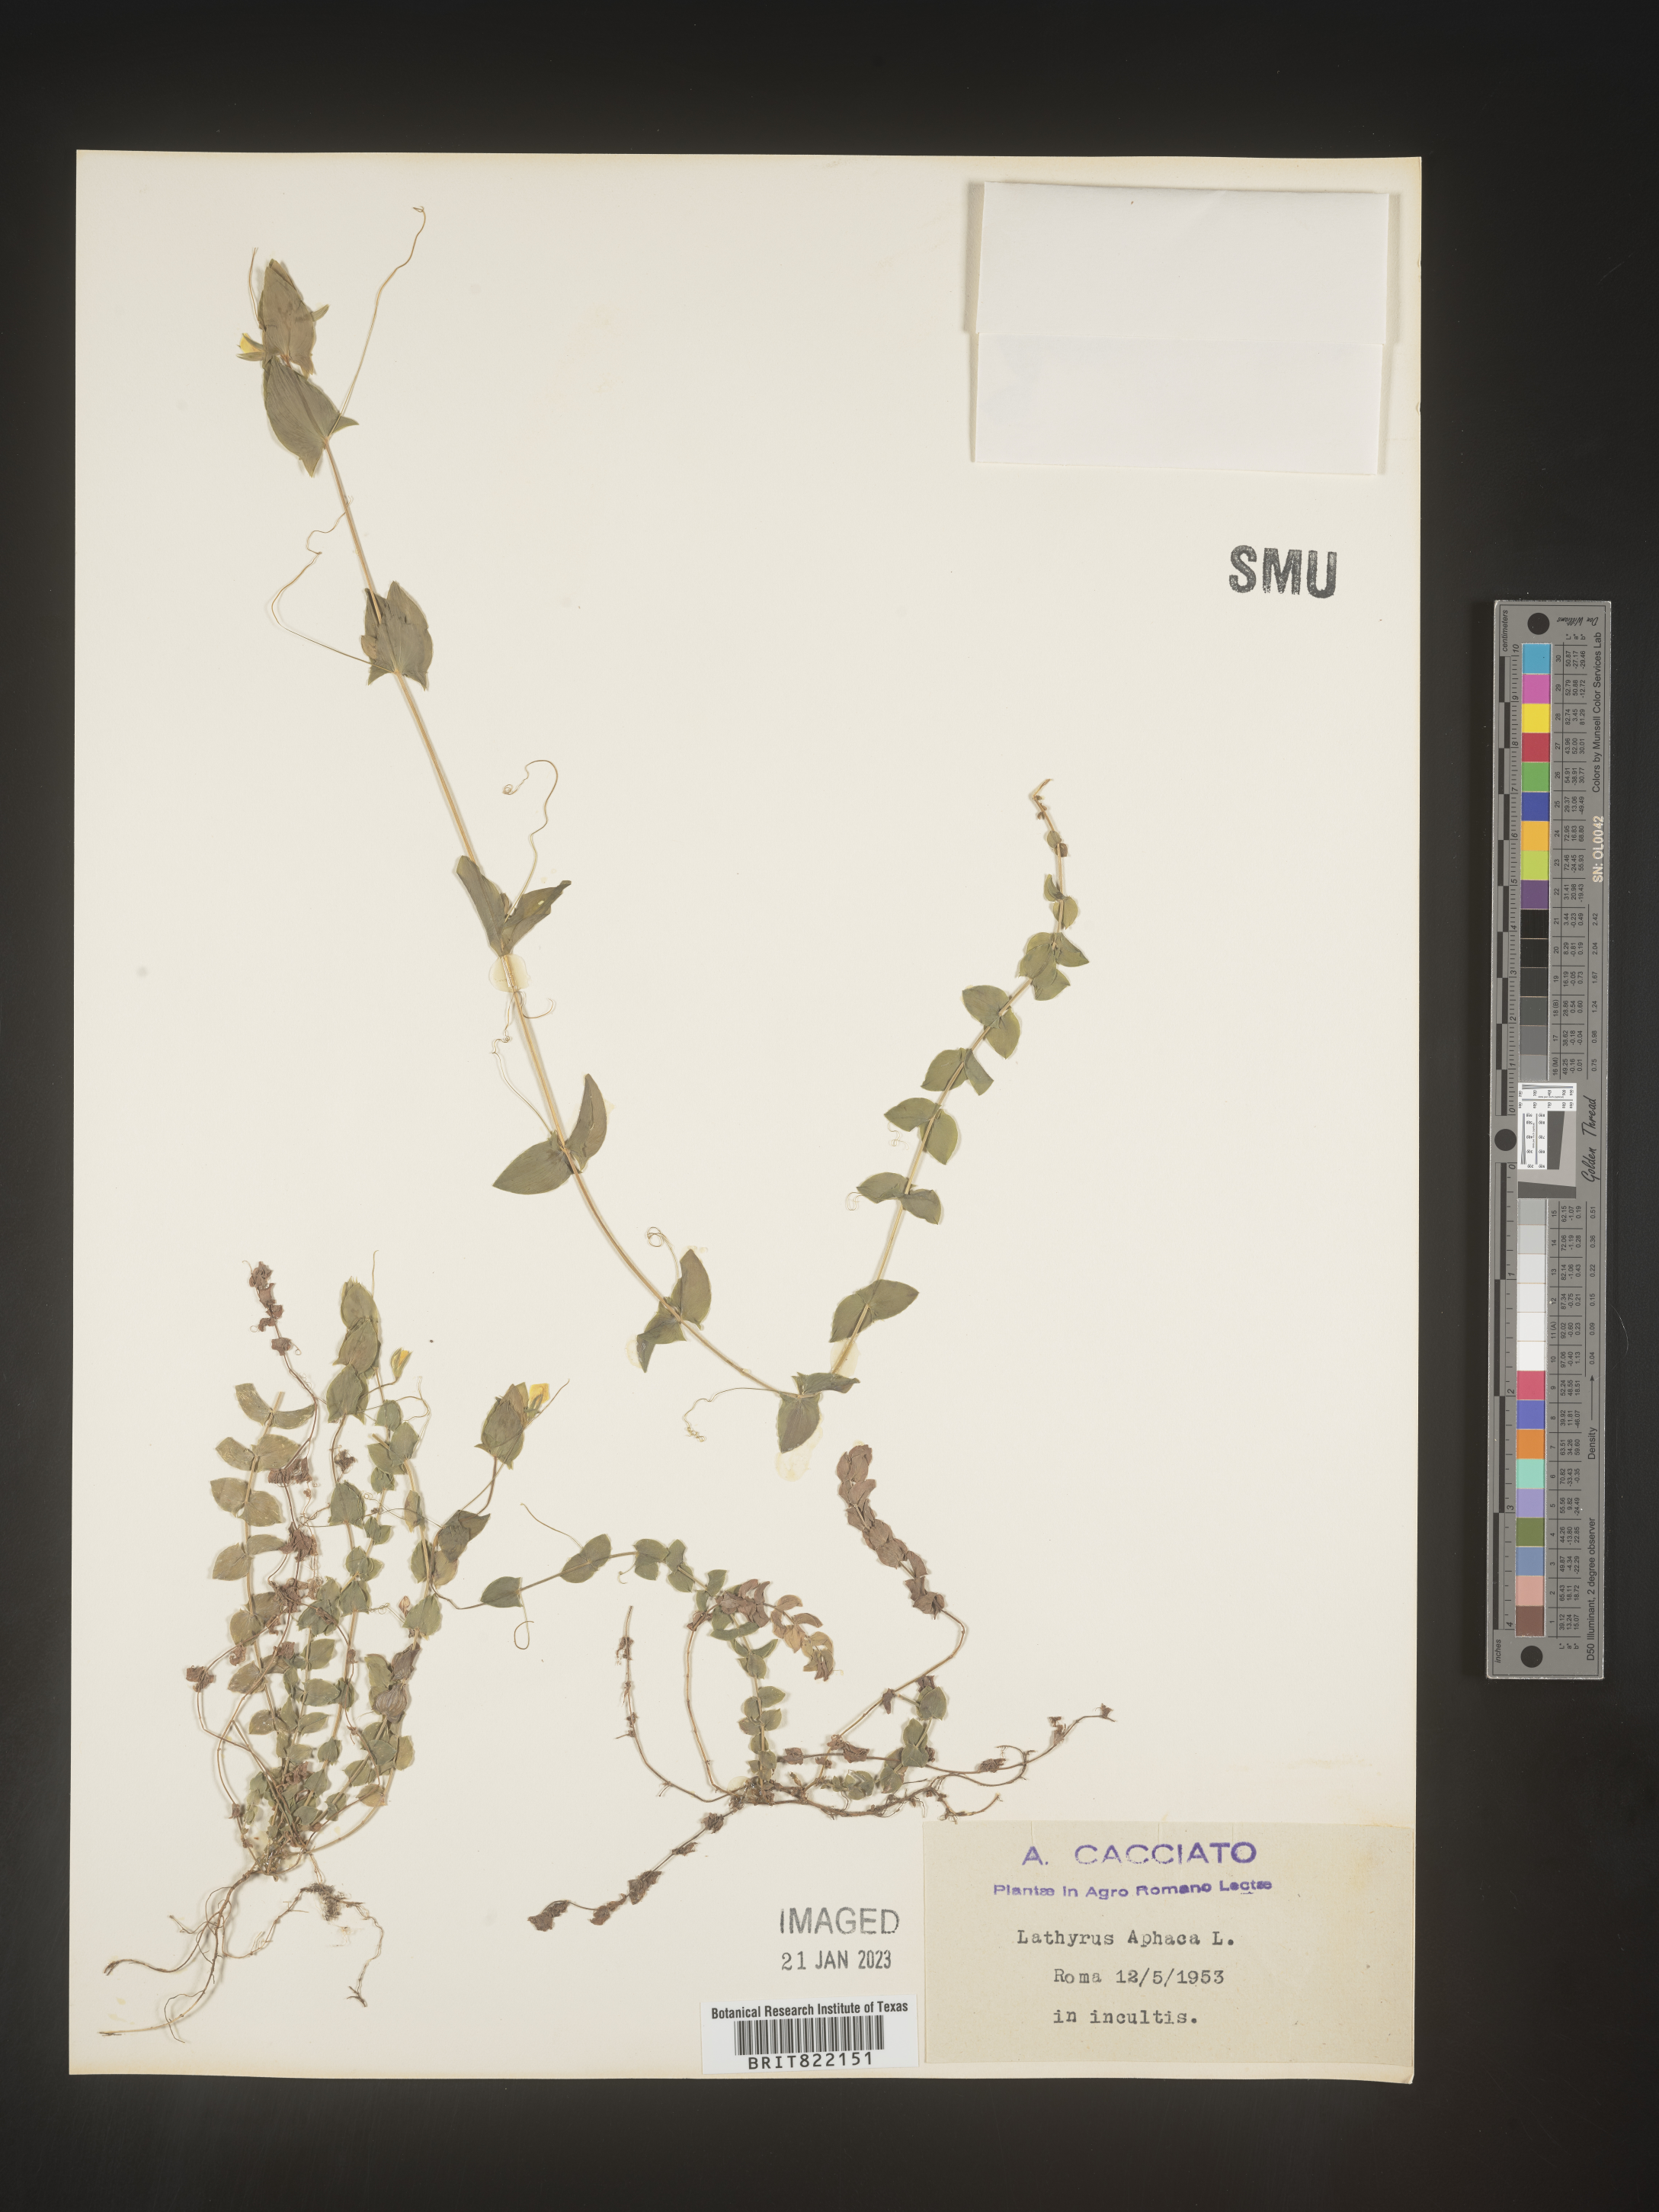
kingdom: Plantae
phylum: Tracheophyta
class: Magnoliopsida
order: Fabales
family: Fabaceae
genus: Lathyrus
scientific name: Lathyrus
